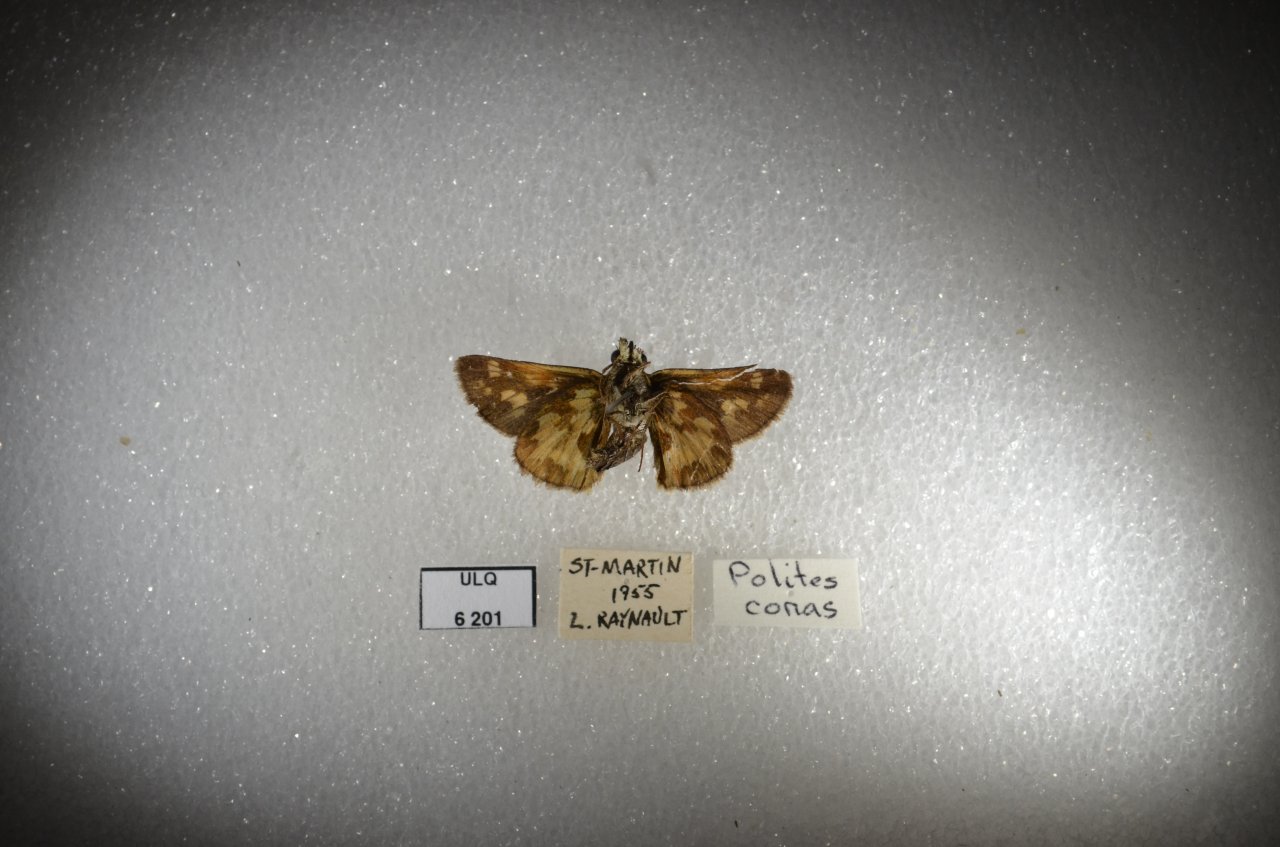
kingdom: Animalia
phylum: Arthropoda
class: Insecta
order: Lepidoptera
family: Hesperiidae
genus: Polites
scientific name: Polites coras
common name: Peck's Skipper
